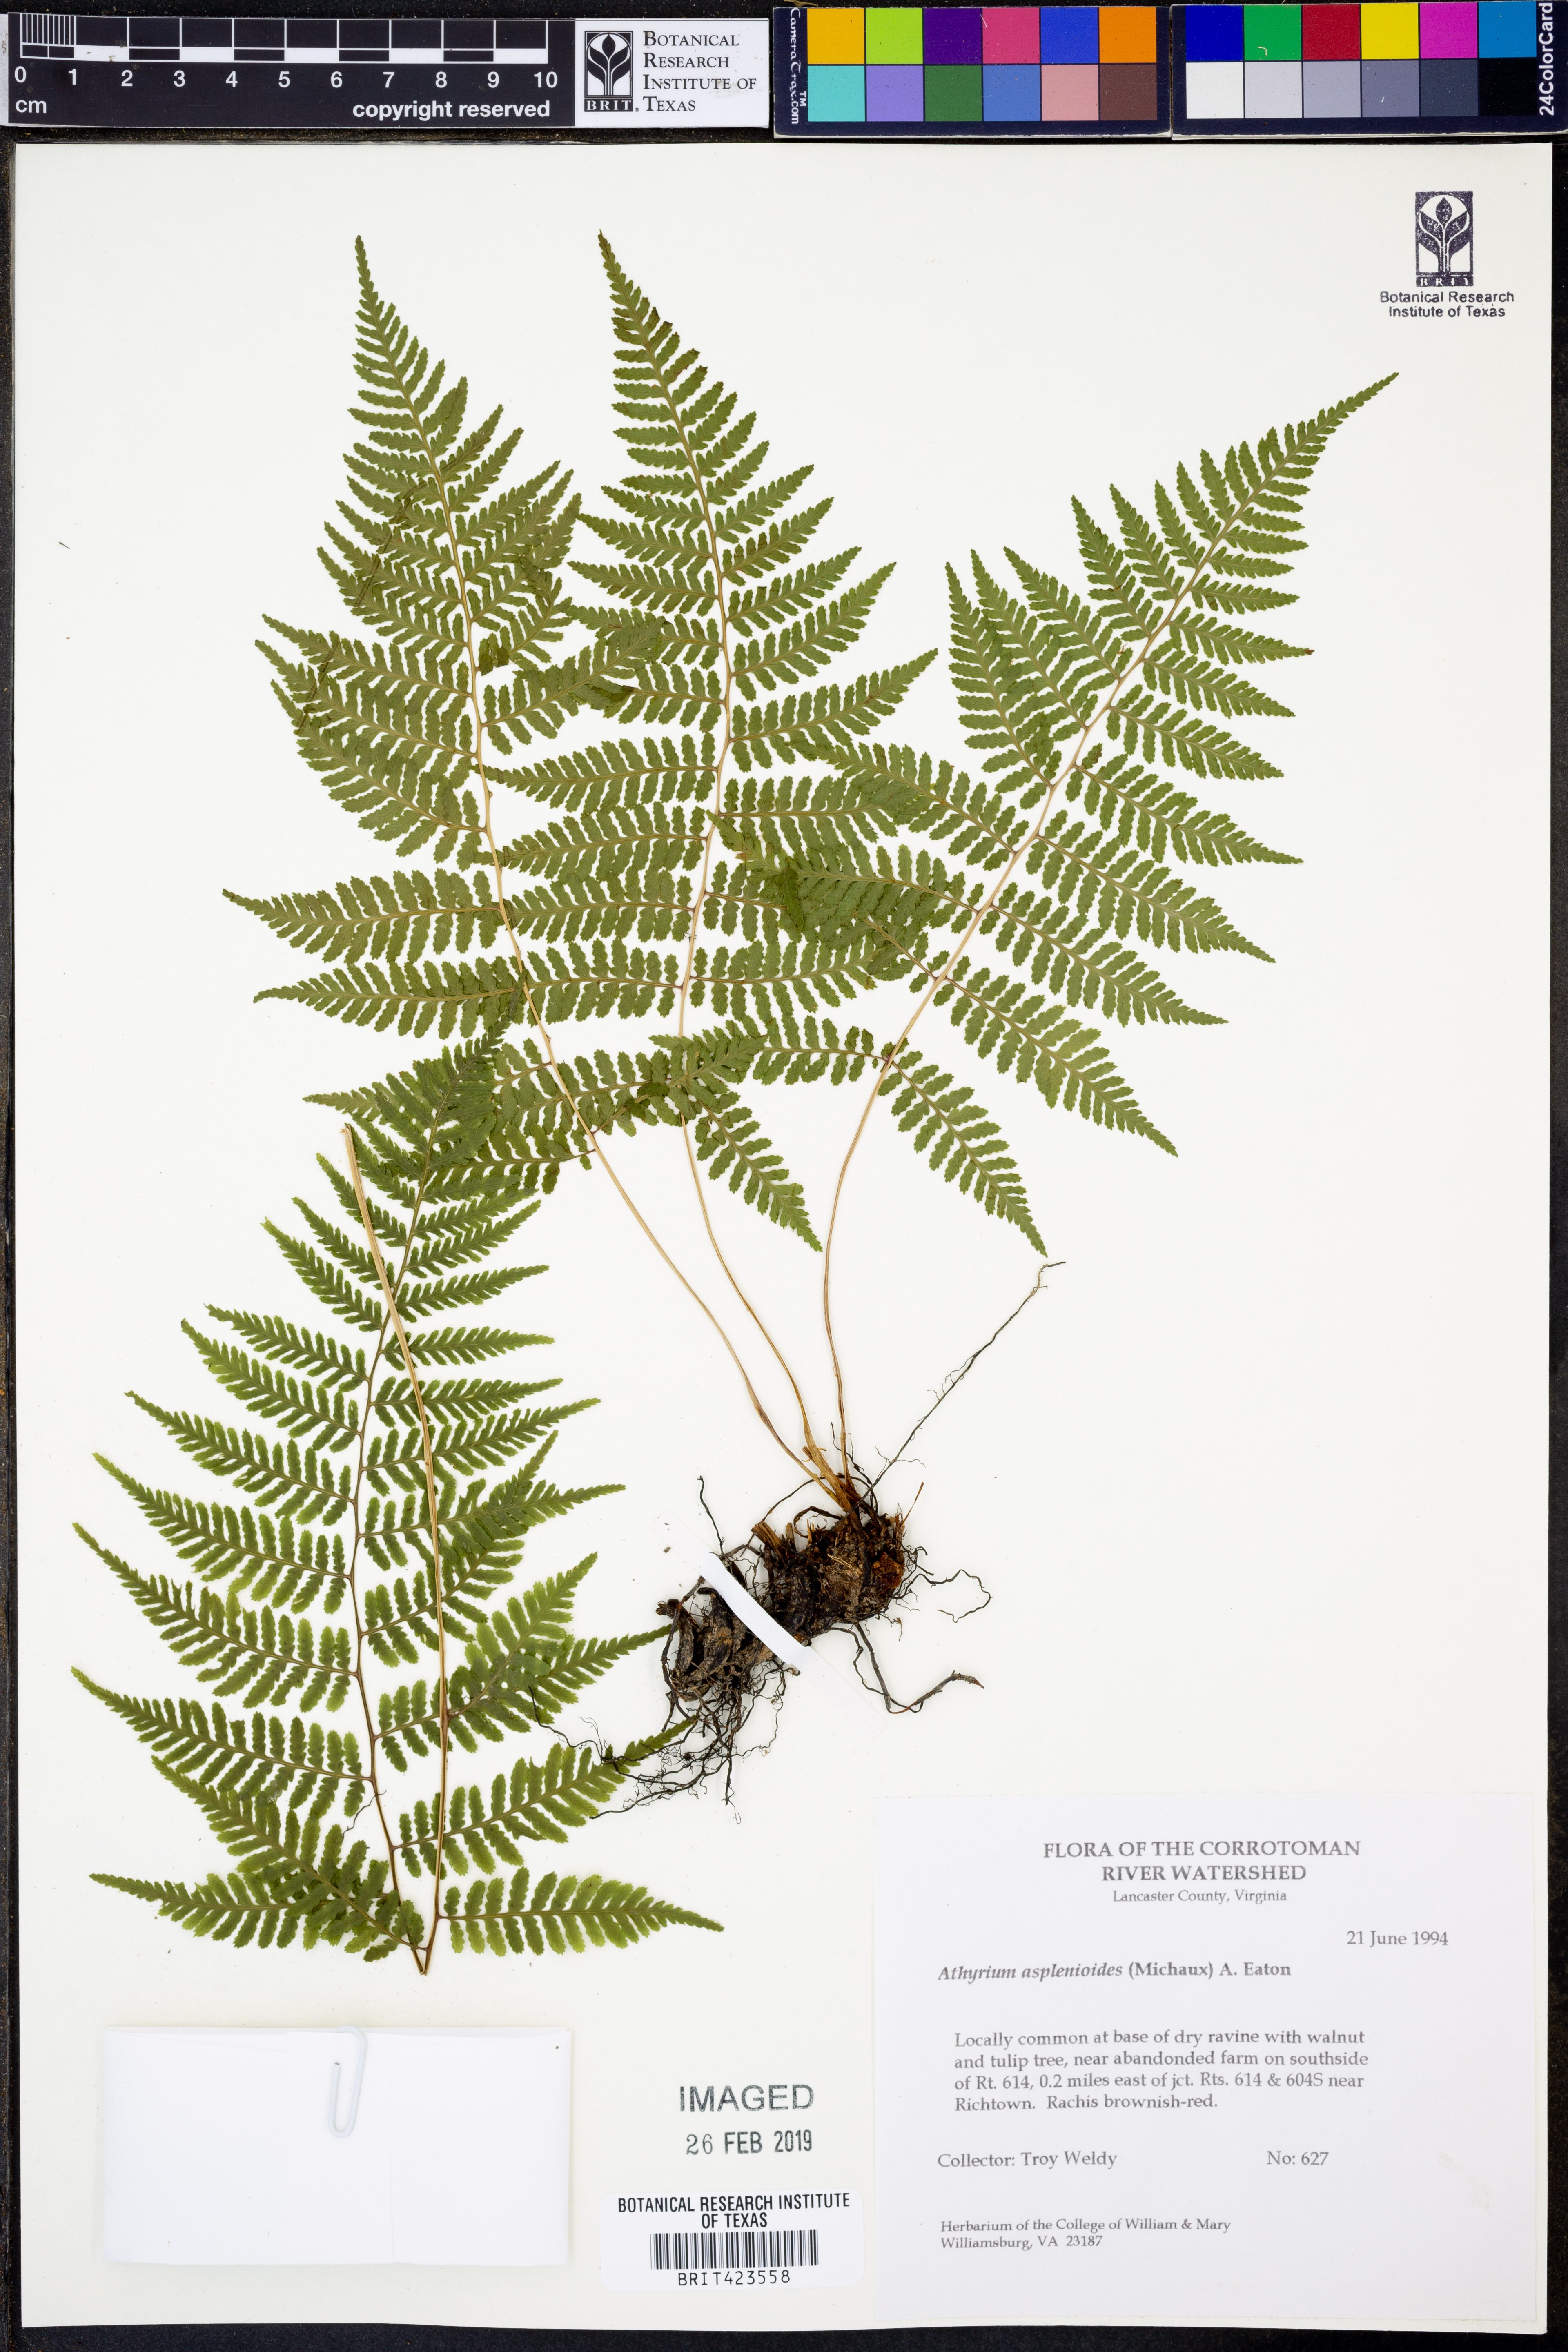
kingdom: Plantae
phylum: Tracheophyta
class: Polypodiopsida
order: Polypodiales
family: Athyriaceae
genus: Athyrium
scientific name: Athyrium asplenioides
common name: Southern lady fern
